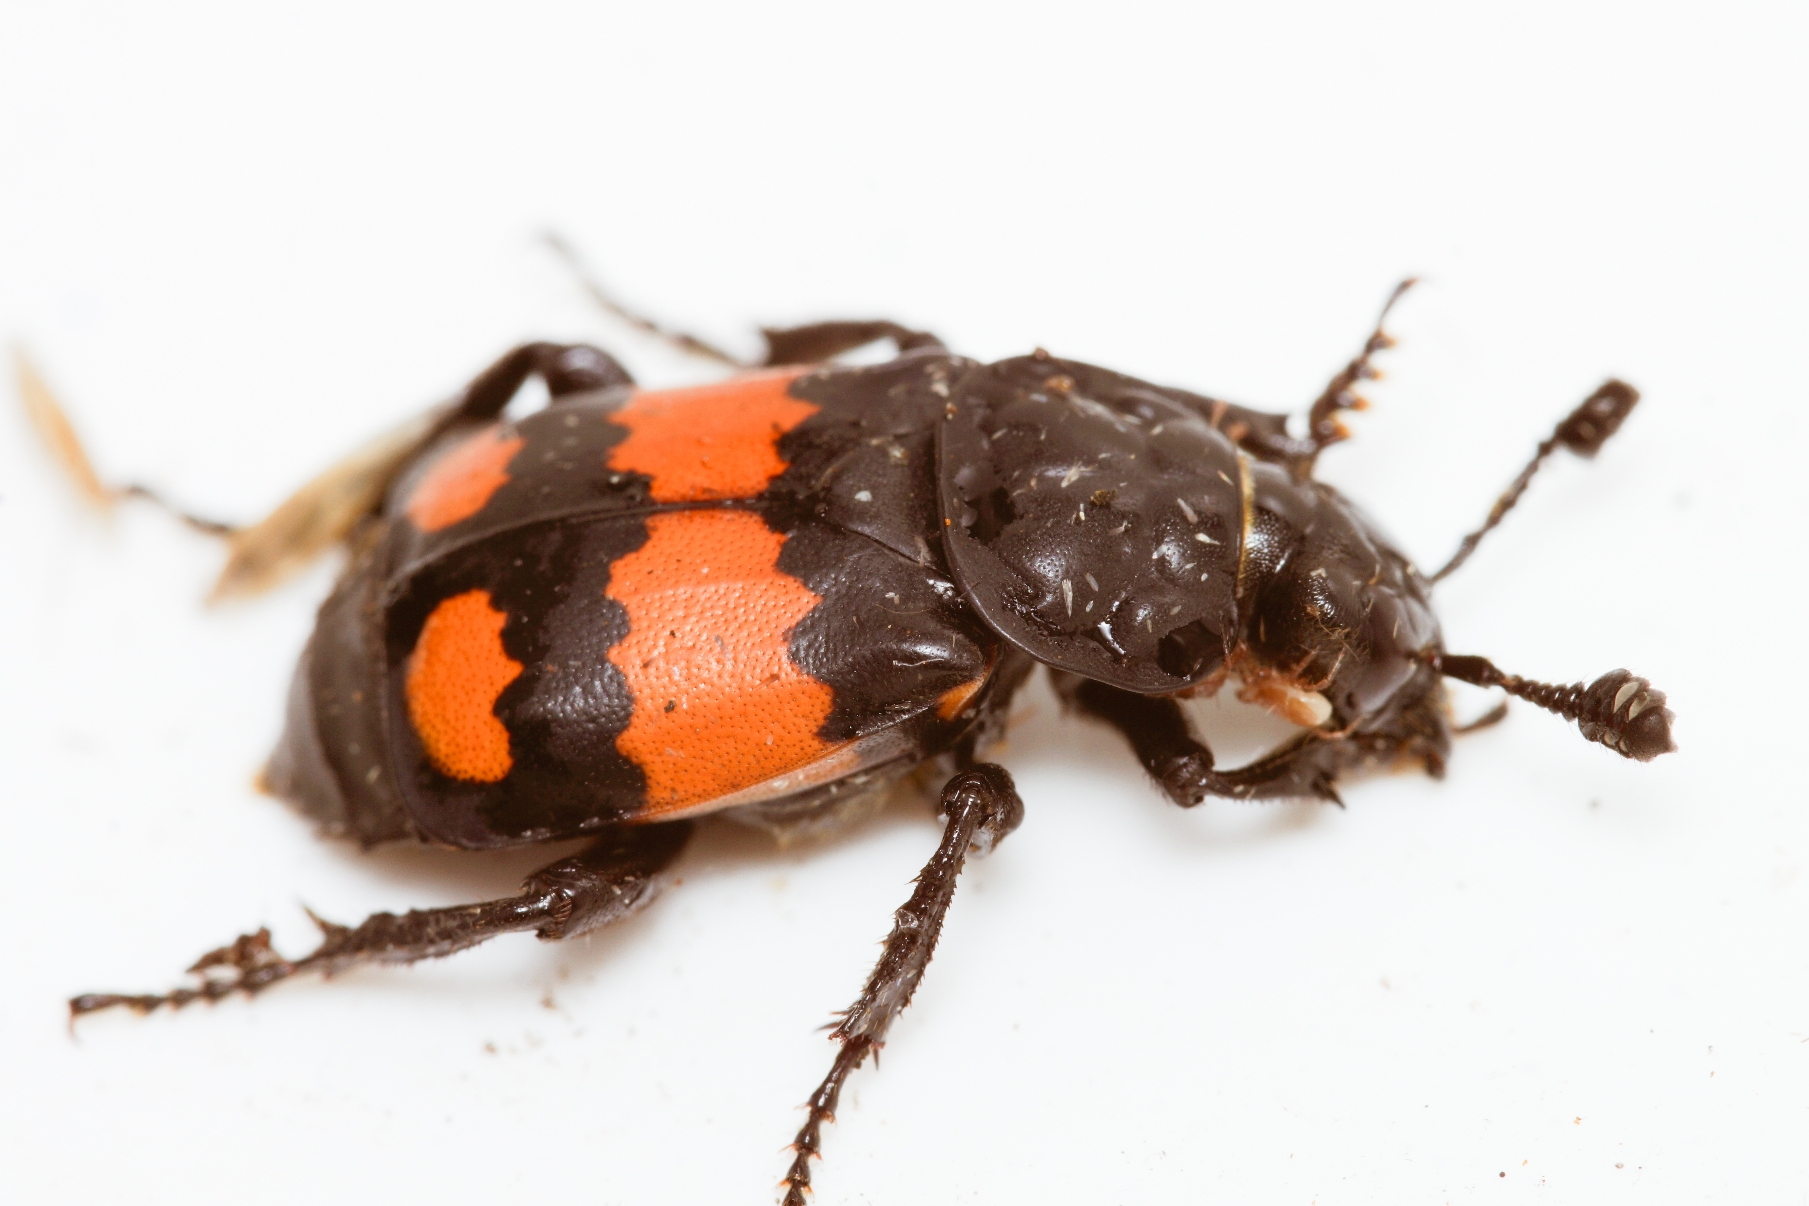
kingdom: Animalia
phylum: Arthropoda
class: Insecta
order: Coleoptera
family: Staphylinidae
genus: Nicrophorus
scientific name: Nicrophorus vespilloides
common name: Sortkøllet ådselgraver
